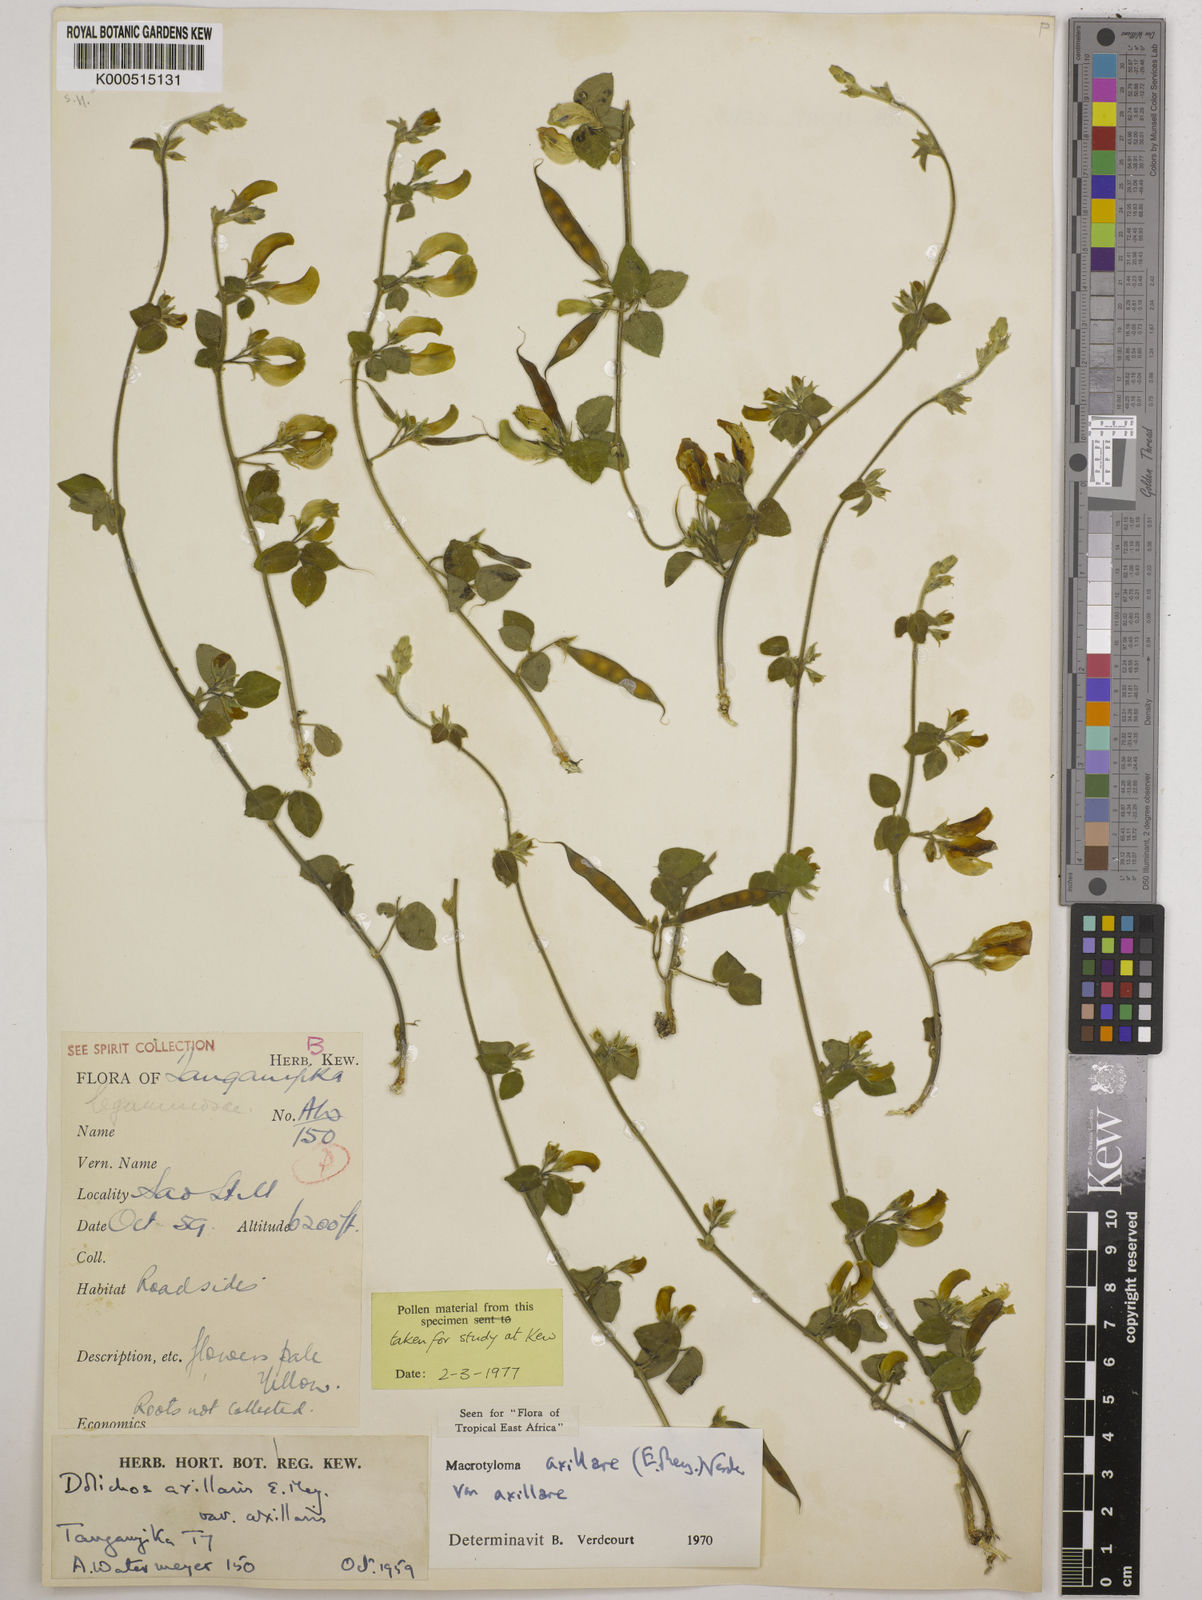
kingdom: Plantae
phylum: Tracheophyta
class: Magnoliopsida
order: Fabales
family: Fabaceae
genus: Macrotyloma
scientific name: Macrotyloma axillare
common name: Perennial horsegram
